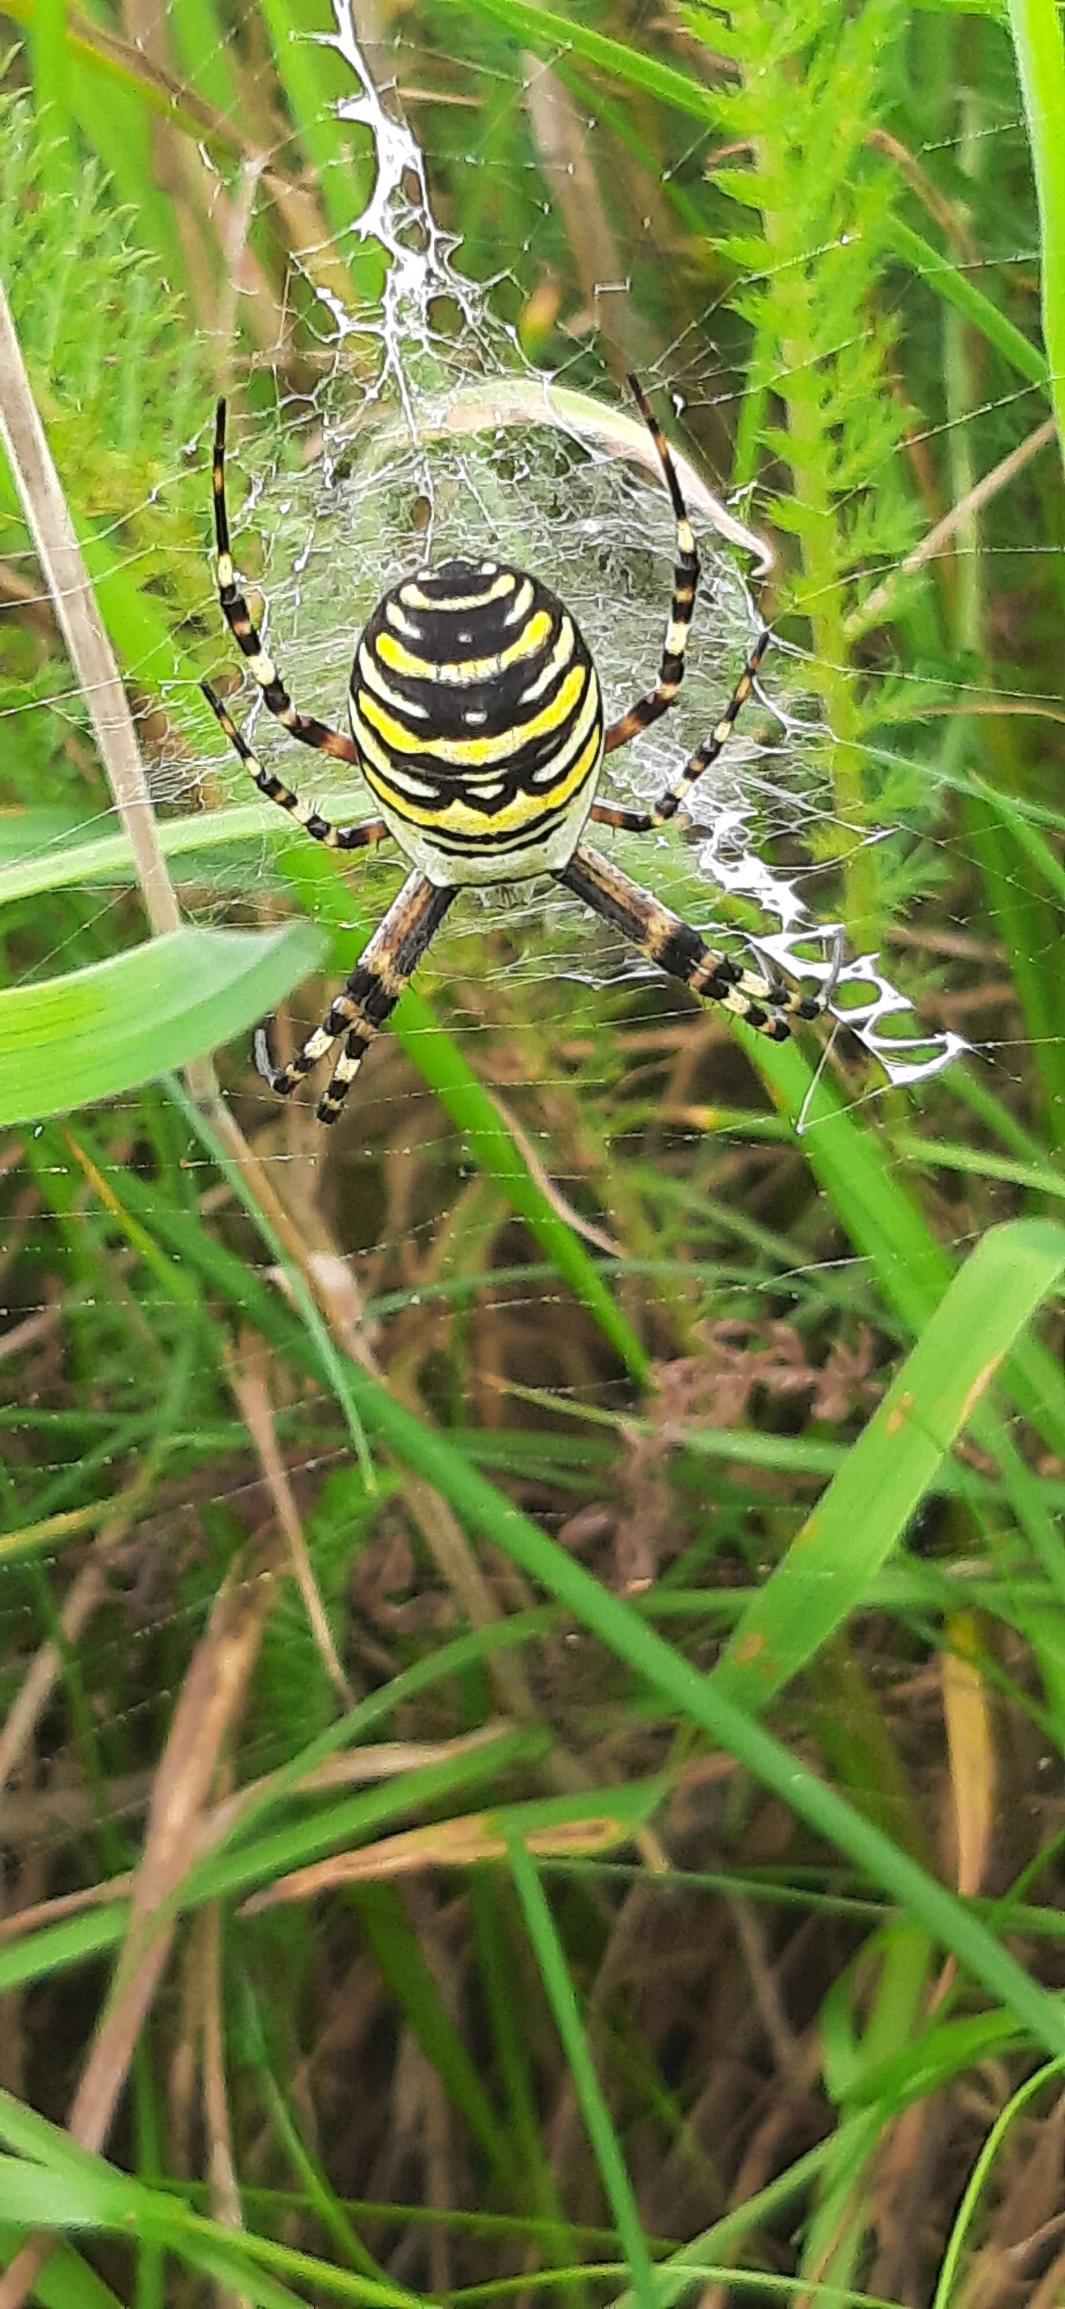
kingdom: Animalia
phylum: Arthropoda
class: Arachnida
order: Araneae
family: Araneidae
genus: Argiope
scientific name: Argiope bruennichi
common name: Hvepseedderkop
